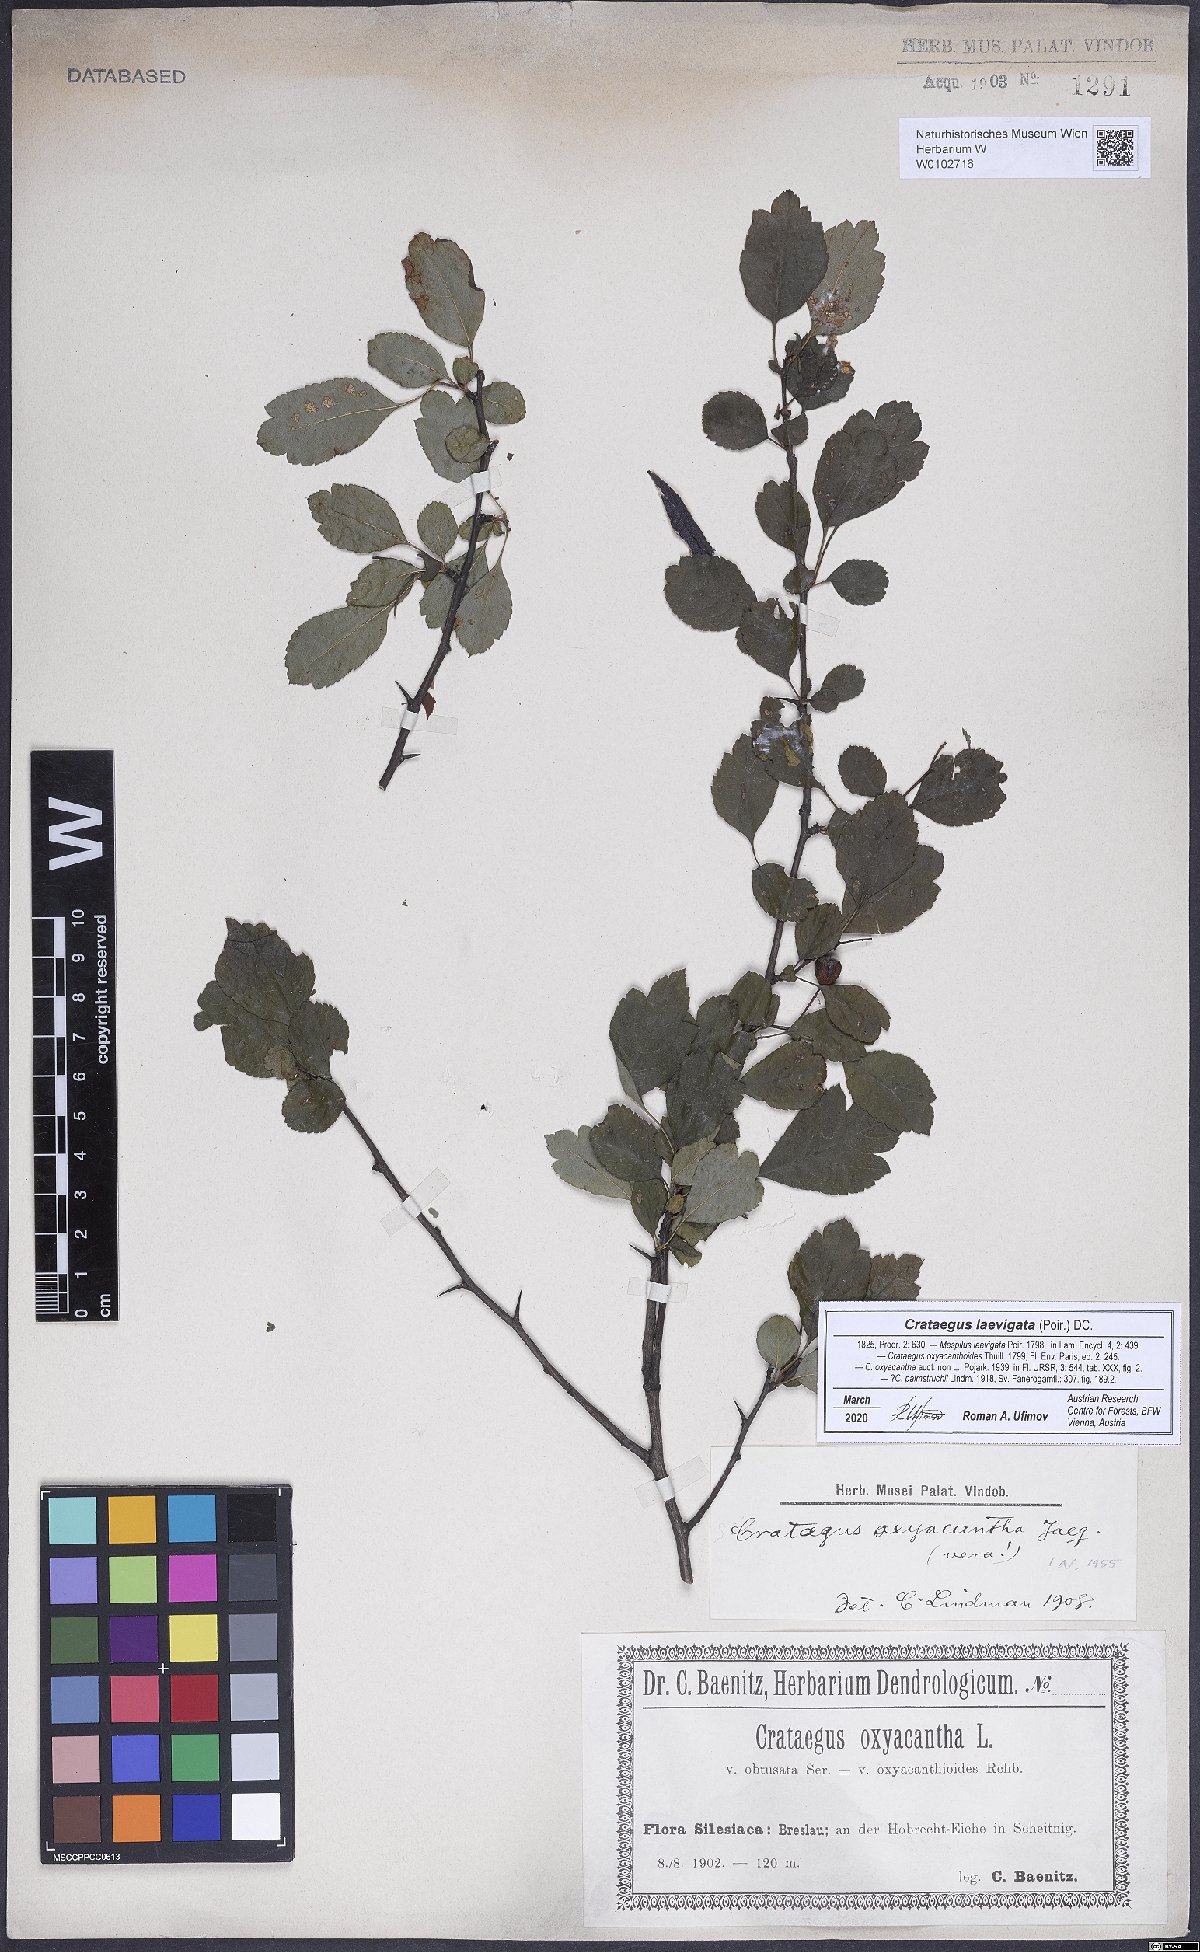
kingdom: Plantae
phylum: Tracheophyta
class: Magnoliopsida
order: Rosales
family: Rosaceae
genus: Crataegus
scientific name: Crataegus laevigata
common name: Midland hawthorn
